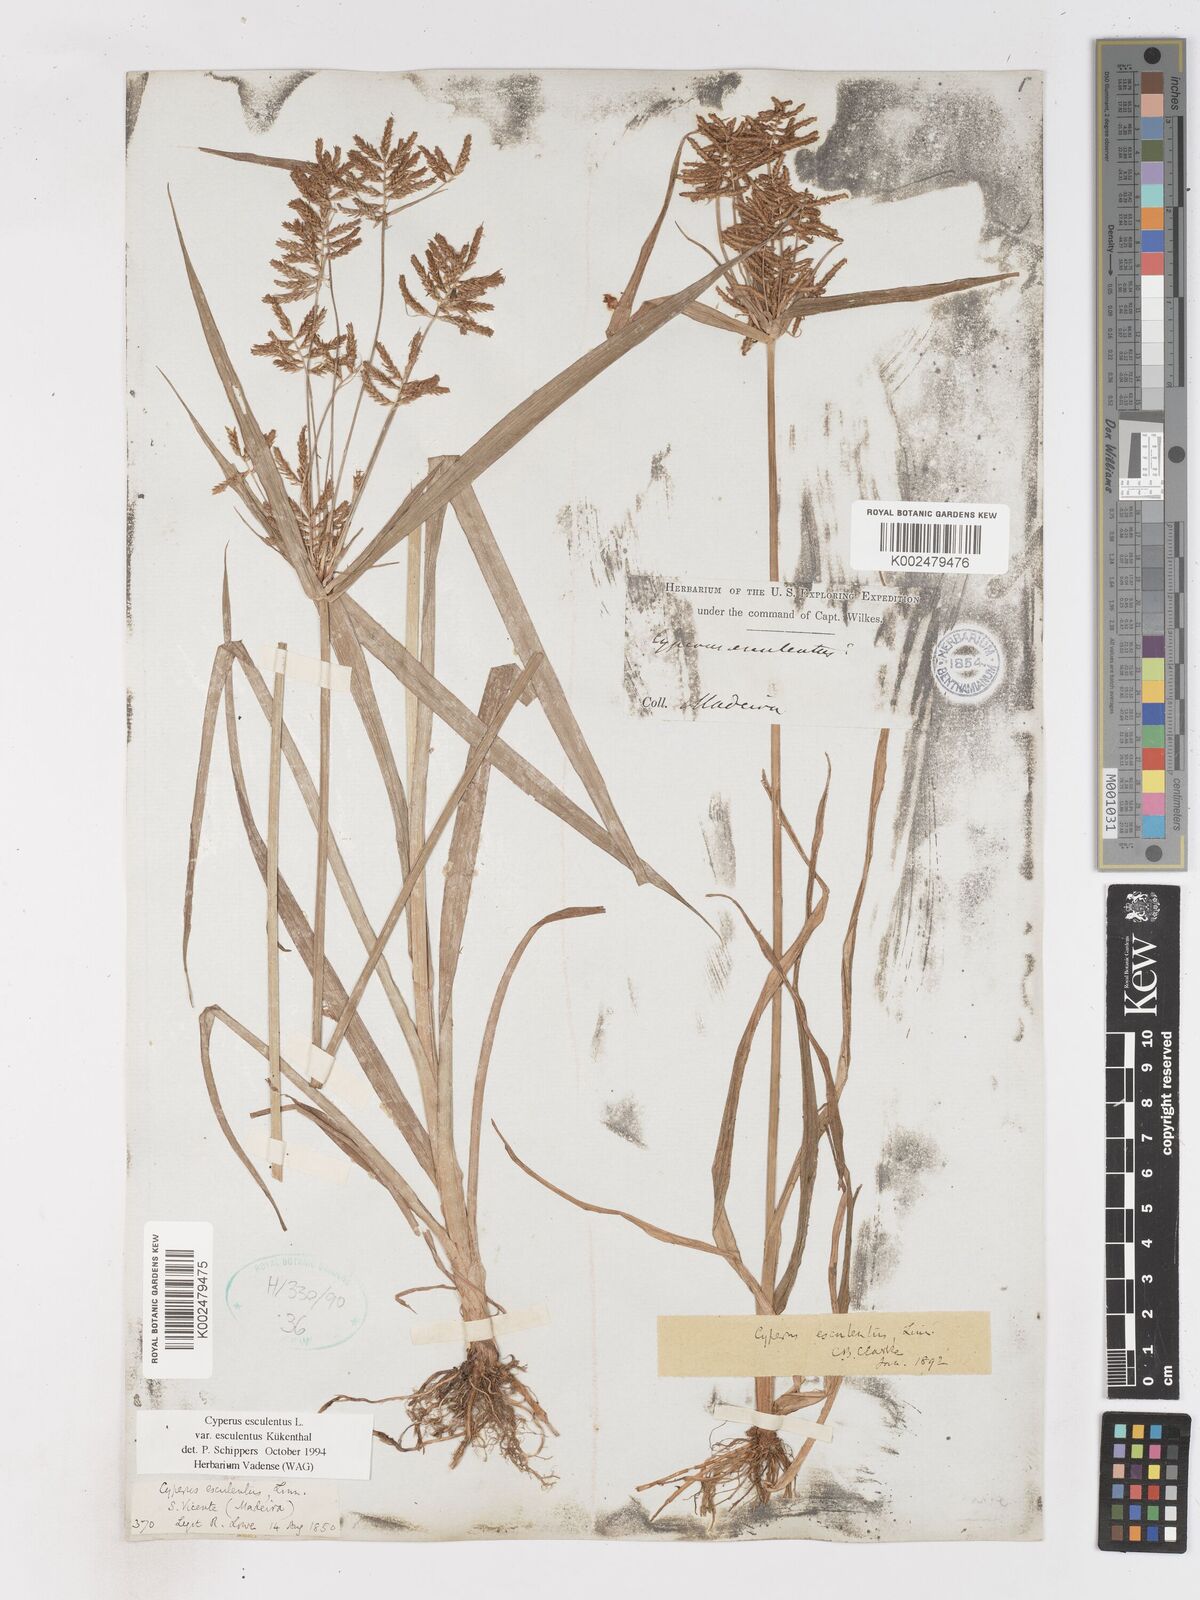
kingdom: Plantae
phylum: Tracheophyta
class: Liliopsida
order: Poales
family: Cyperaceae
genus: Cyperus
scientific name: Cyperus esculentus
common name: Yellow nutsedge
